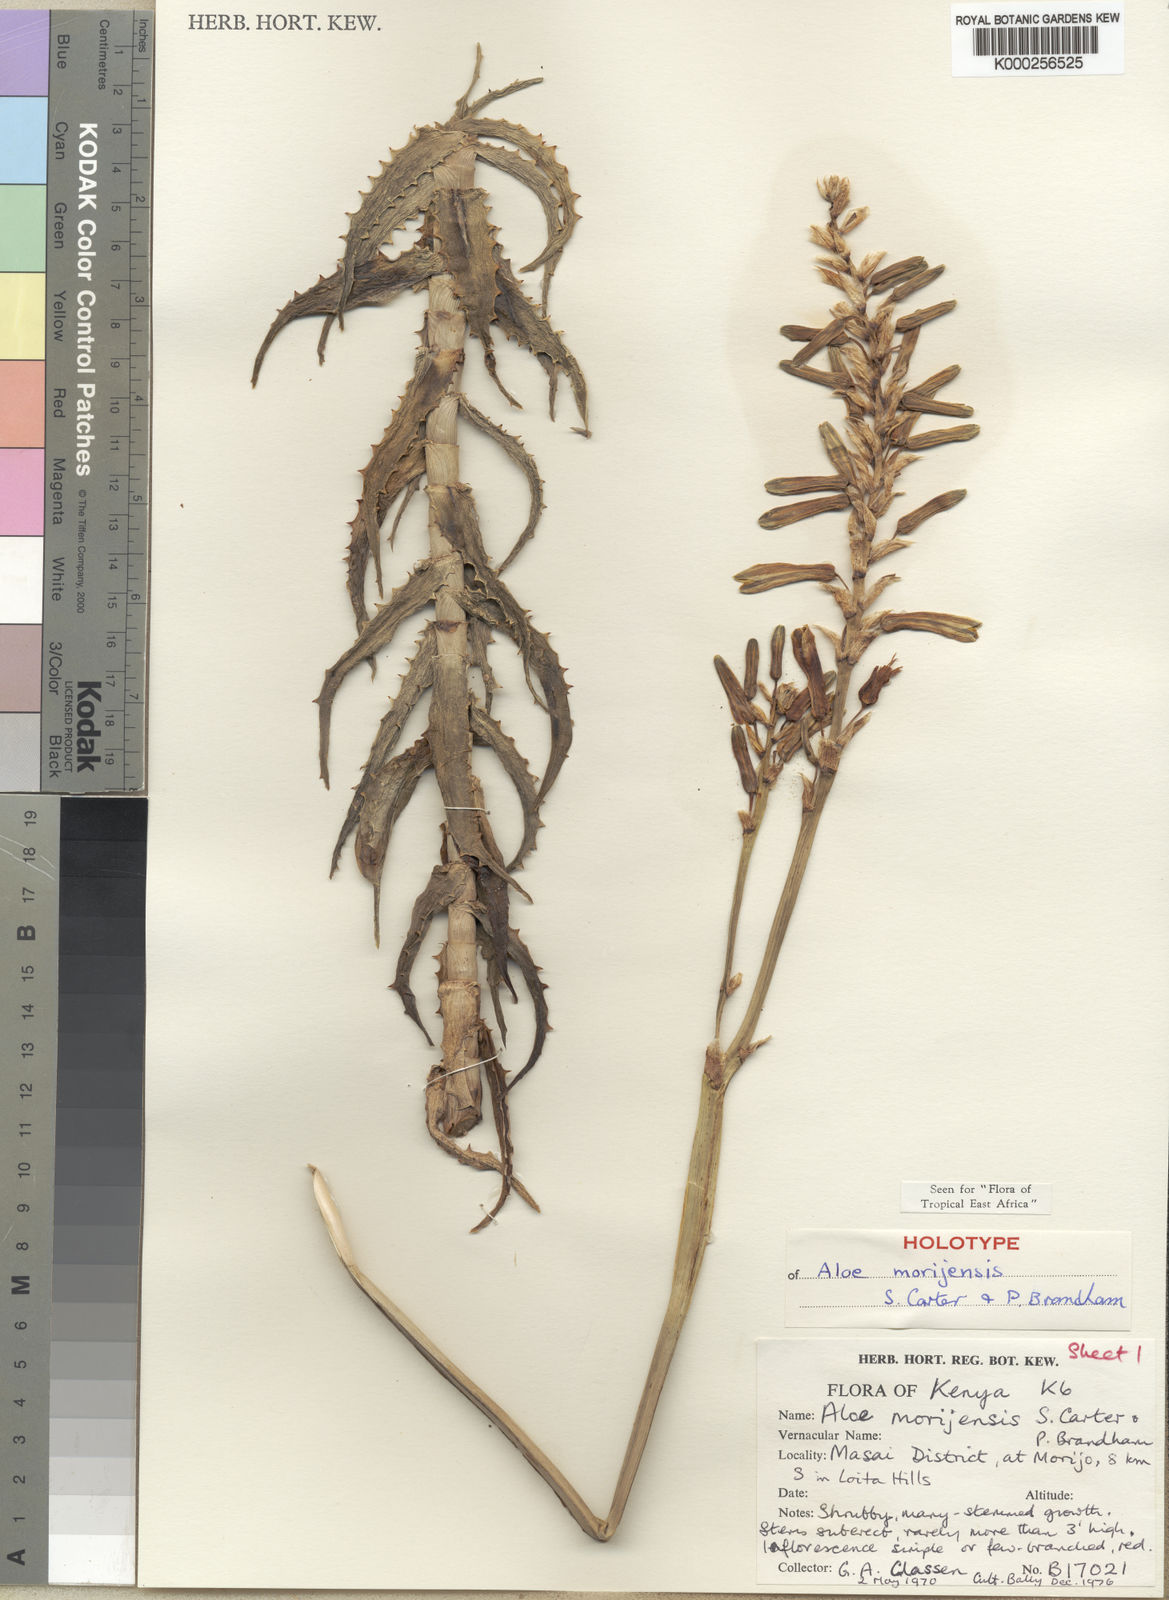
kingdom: Plantae
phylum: Tracheophyta
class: Liliopsida
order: Asparagales
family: Asphodelaceae
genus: Aloe
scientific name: Aloe morijensis
